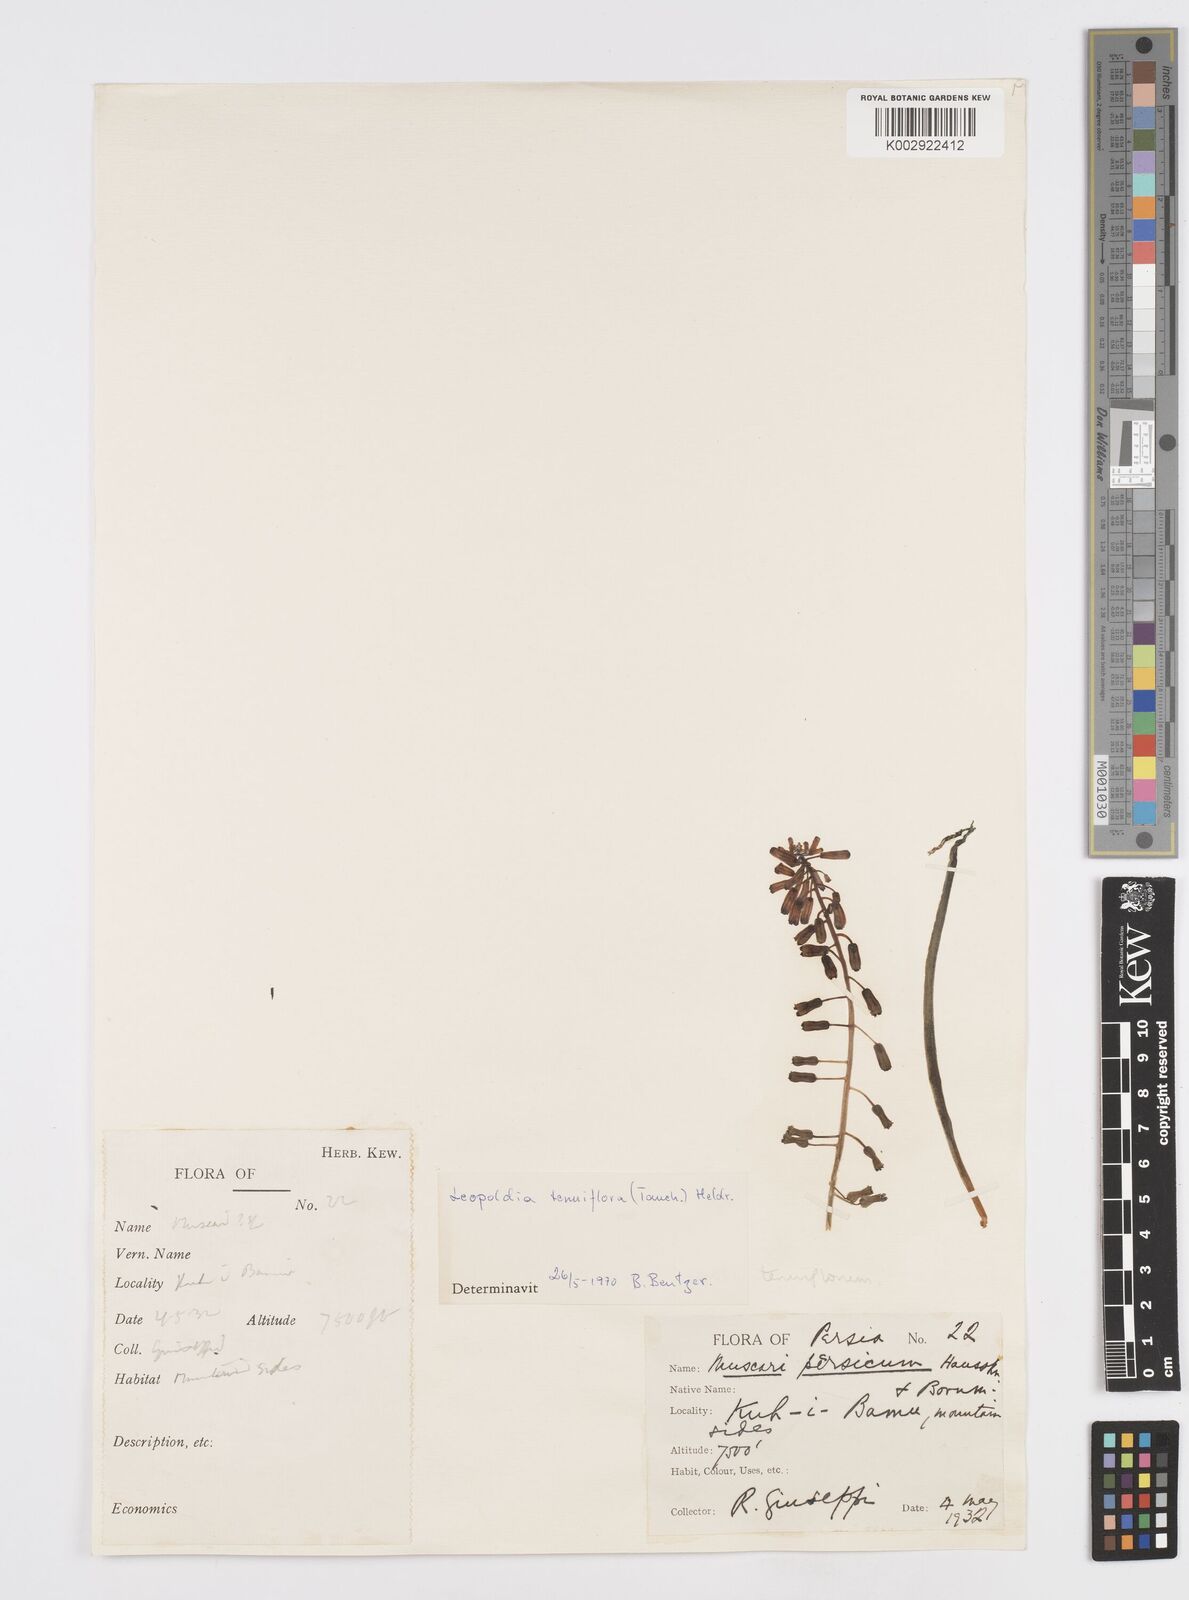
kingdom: Animalia
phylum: Mollusca
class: Cephalopoda
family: Neocomitidae
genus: Leopoldia
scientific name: Leopoldia
